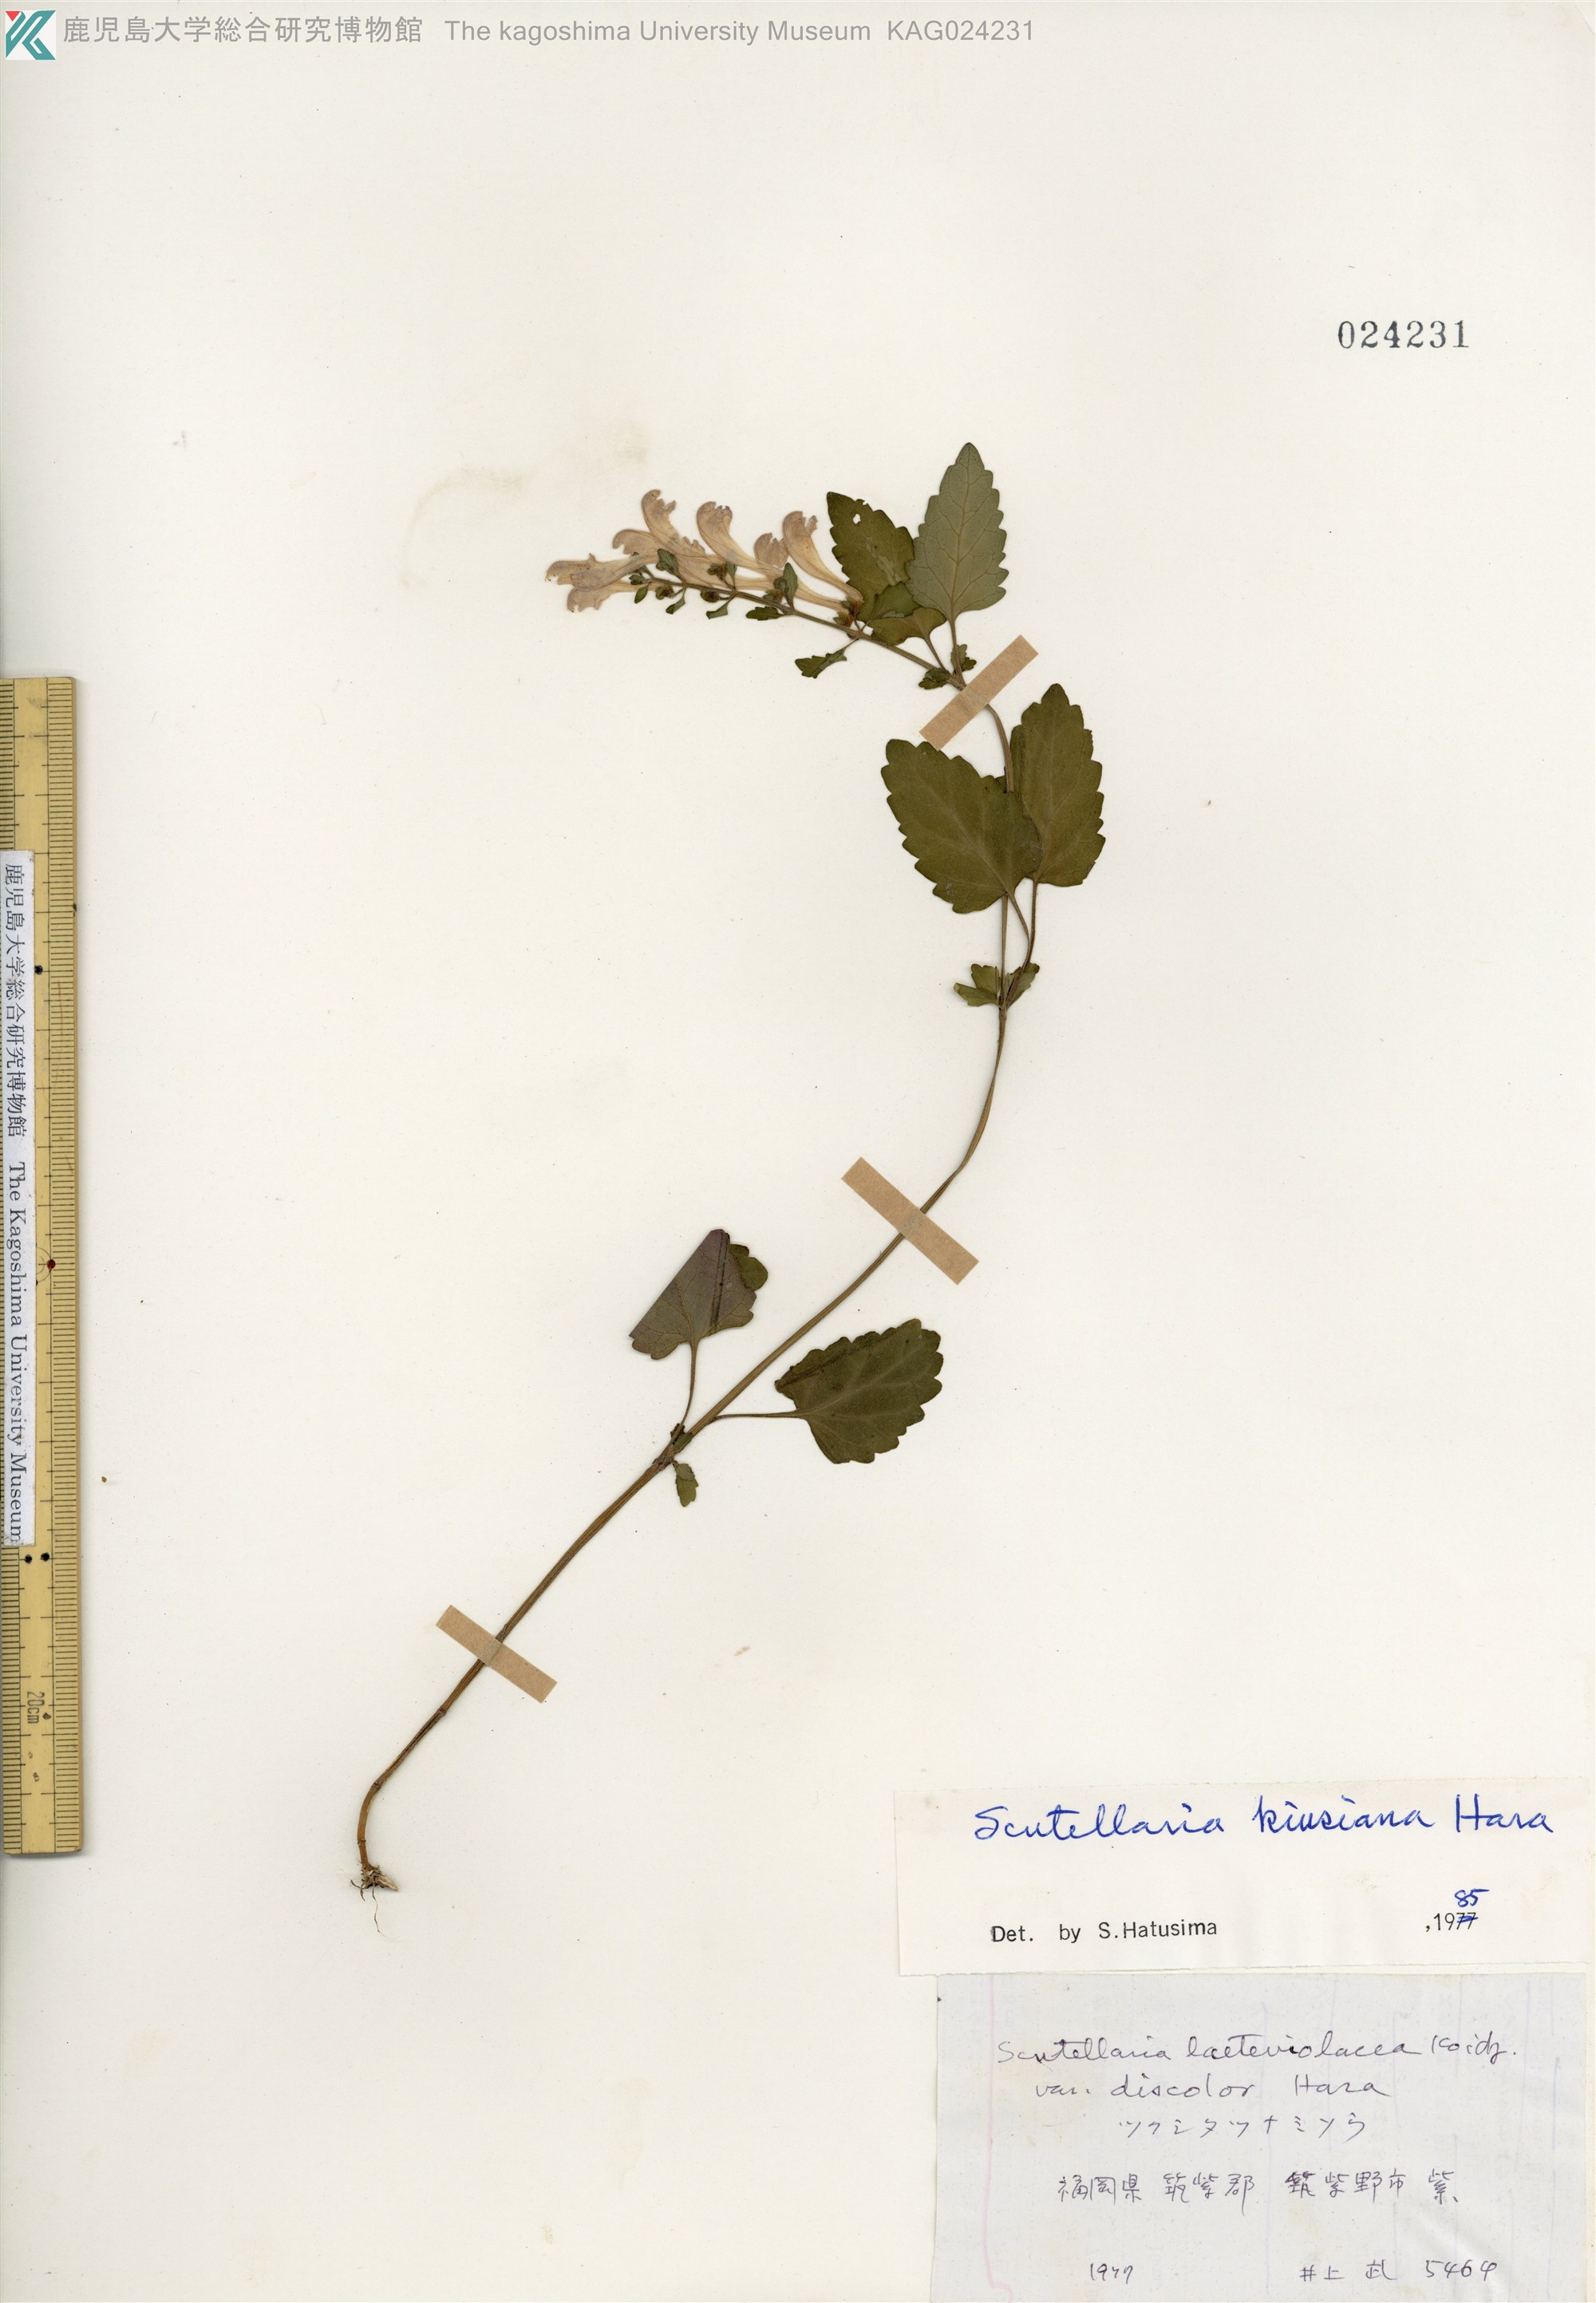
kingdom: Plantae
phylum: Tracheophyta
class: Magnoliopsida
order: Lamiales
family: Lamiaceae
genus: Scutellaria
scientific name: Scutellaria kiusiana
